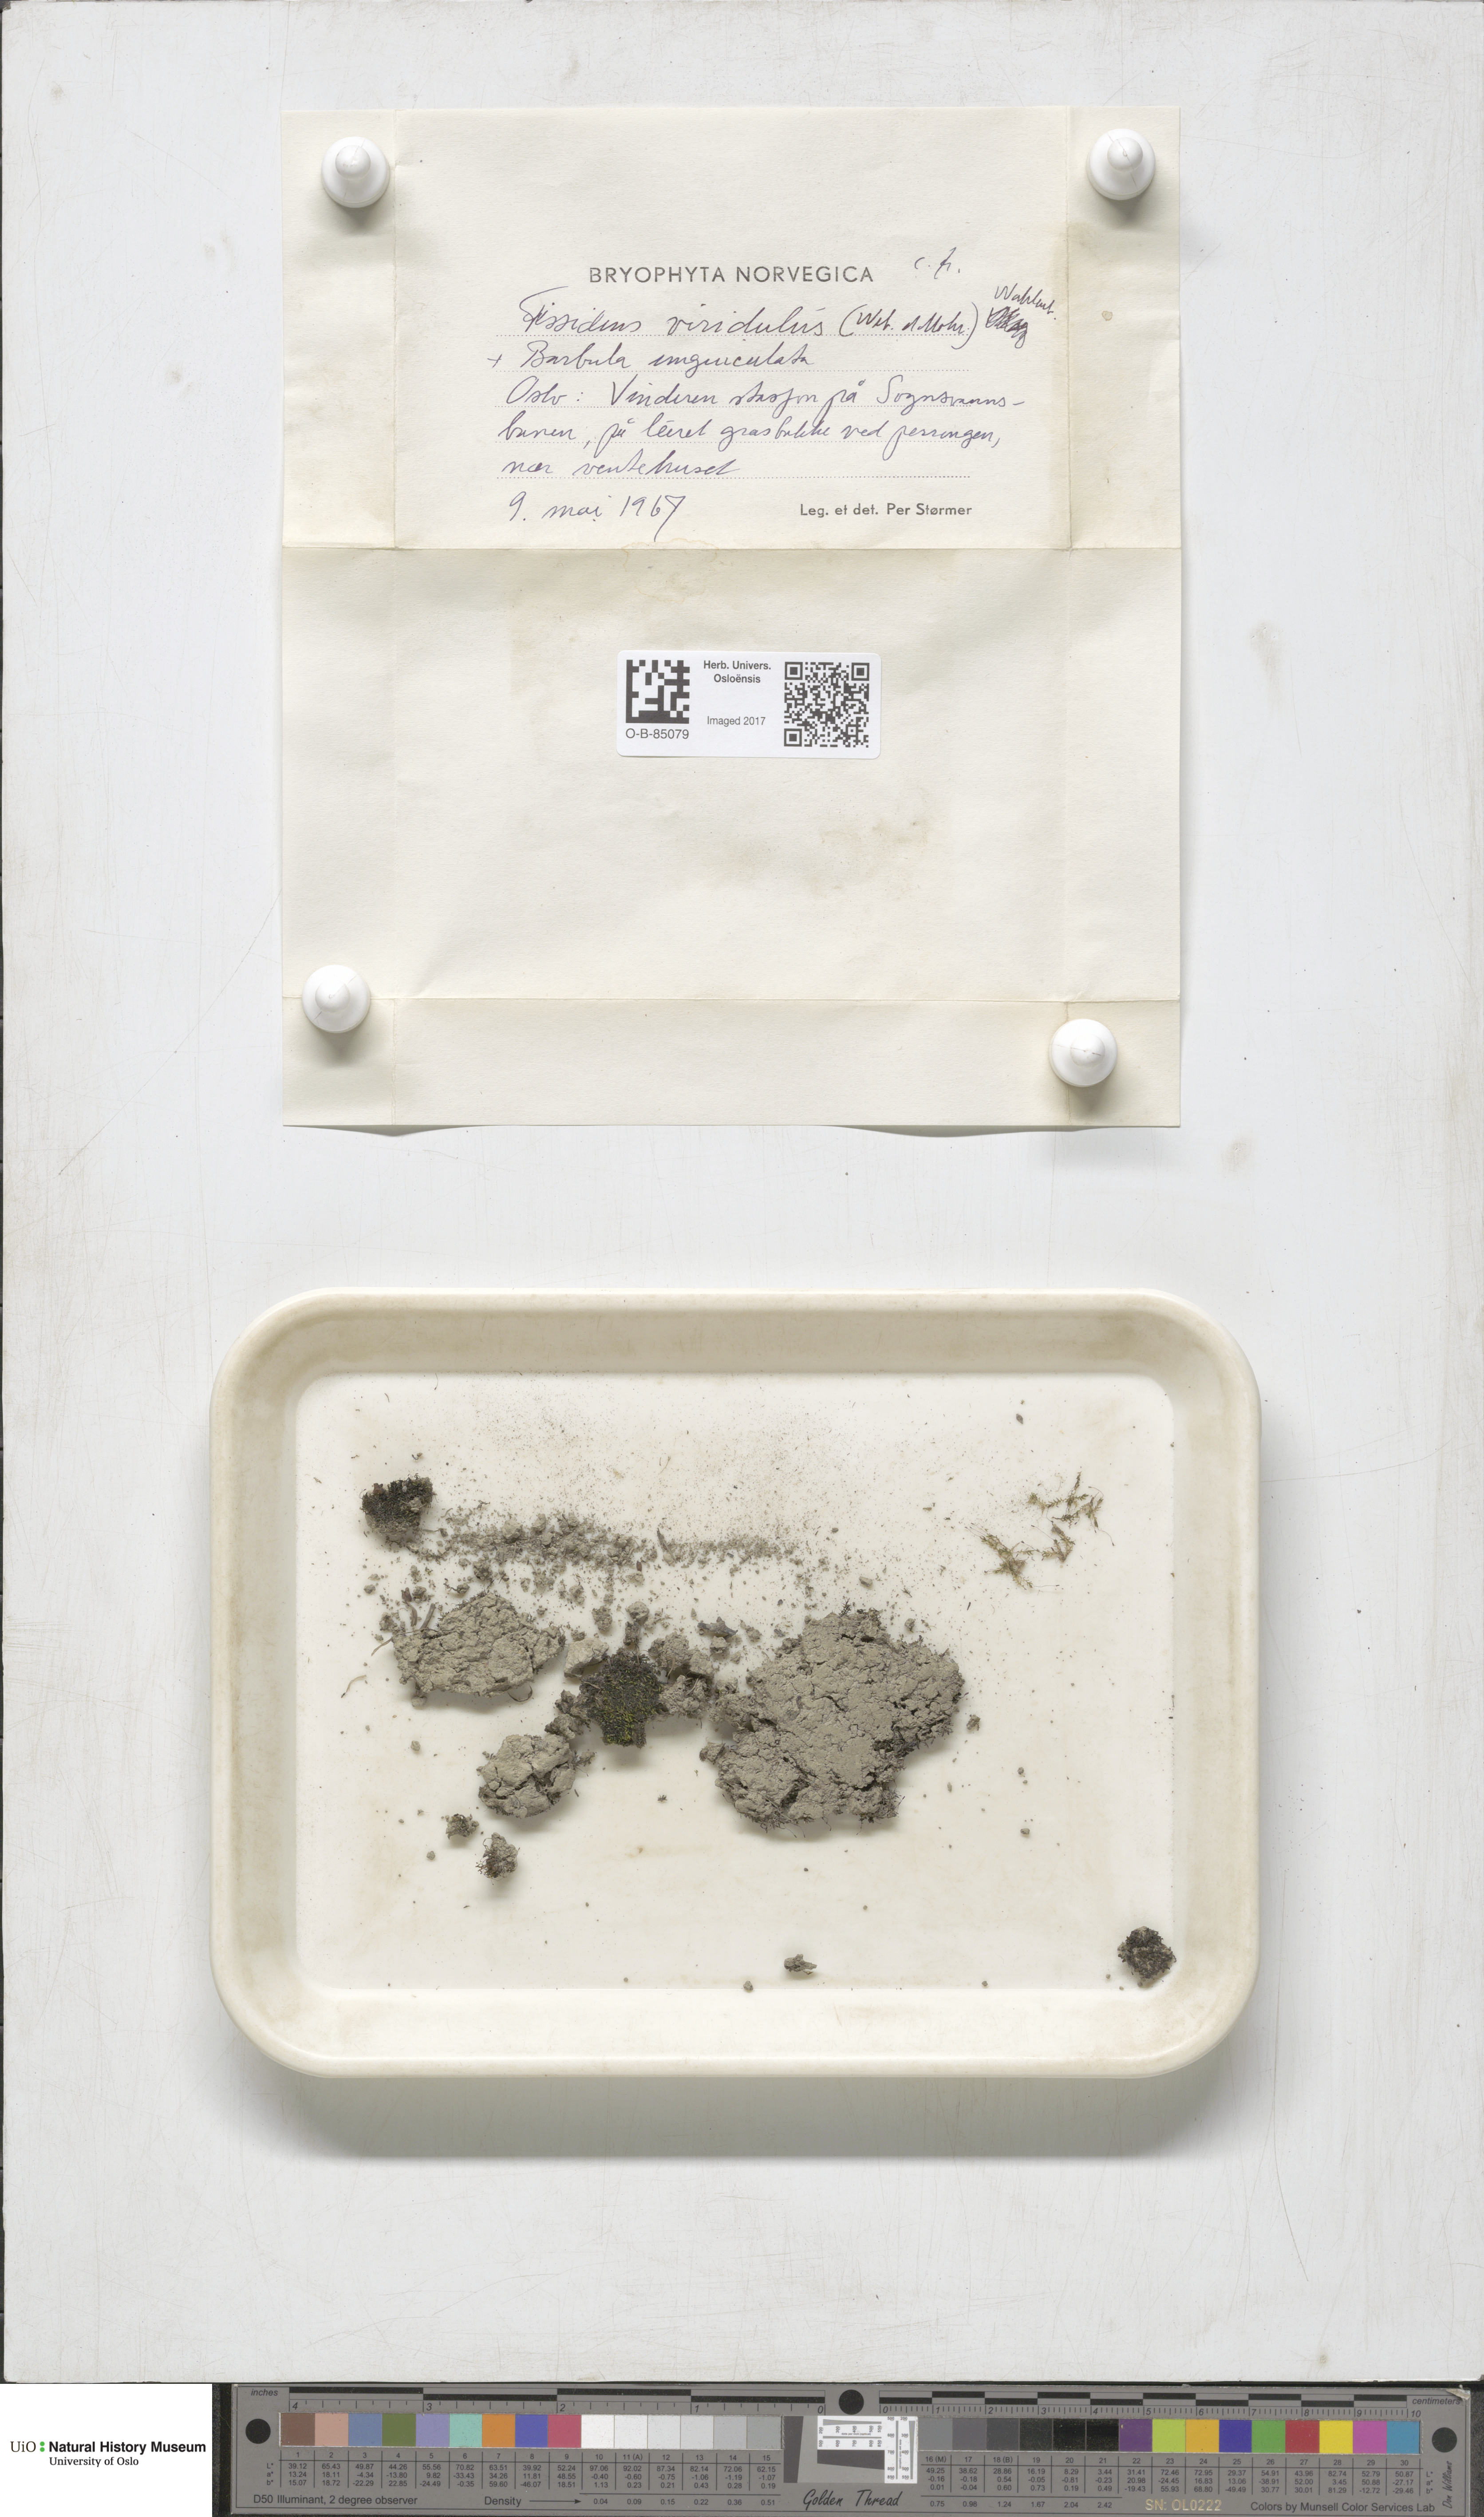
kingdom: Plantae
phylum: Bryophyta
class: Bryopsida
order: Dicranales
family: Fissidentaceae
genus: Fissidens
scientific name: Fissidens viridulus
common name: Green pocket-moss
